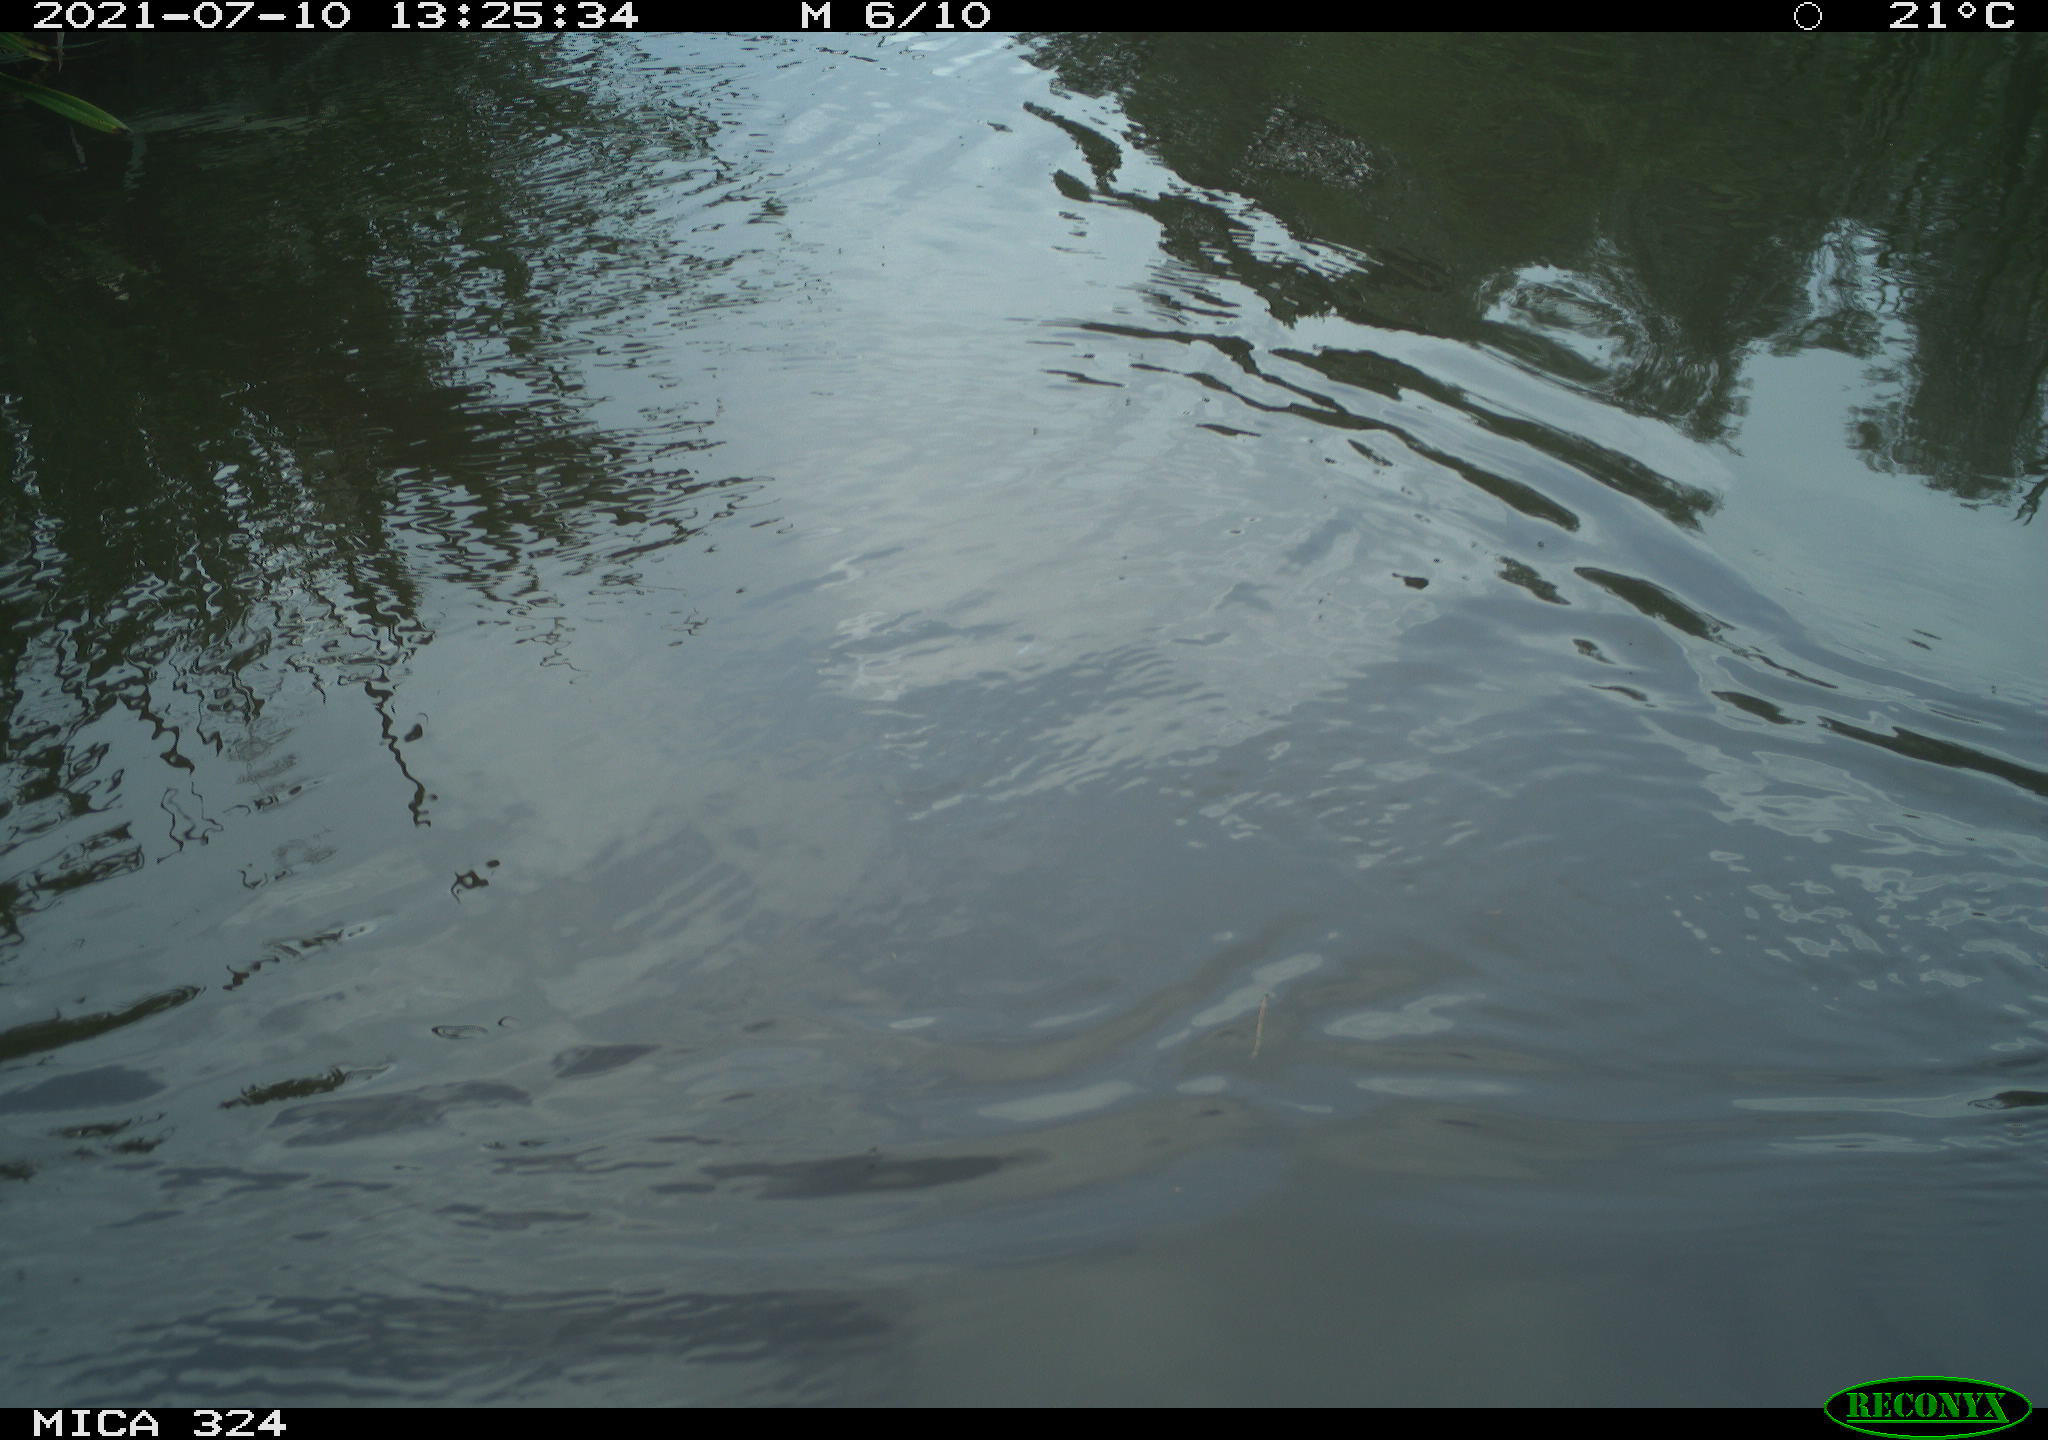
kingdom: Animalia
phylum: Chordata
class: Aves
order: Gruiformes
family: Rallidae
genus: Gallinula
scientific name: Gallinula chloropus
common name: Common moorhen
